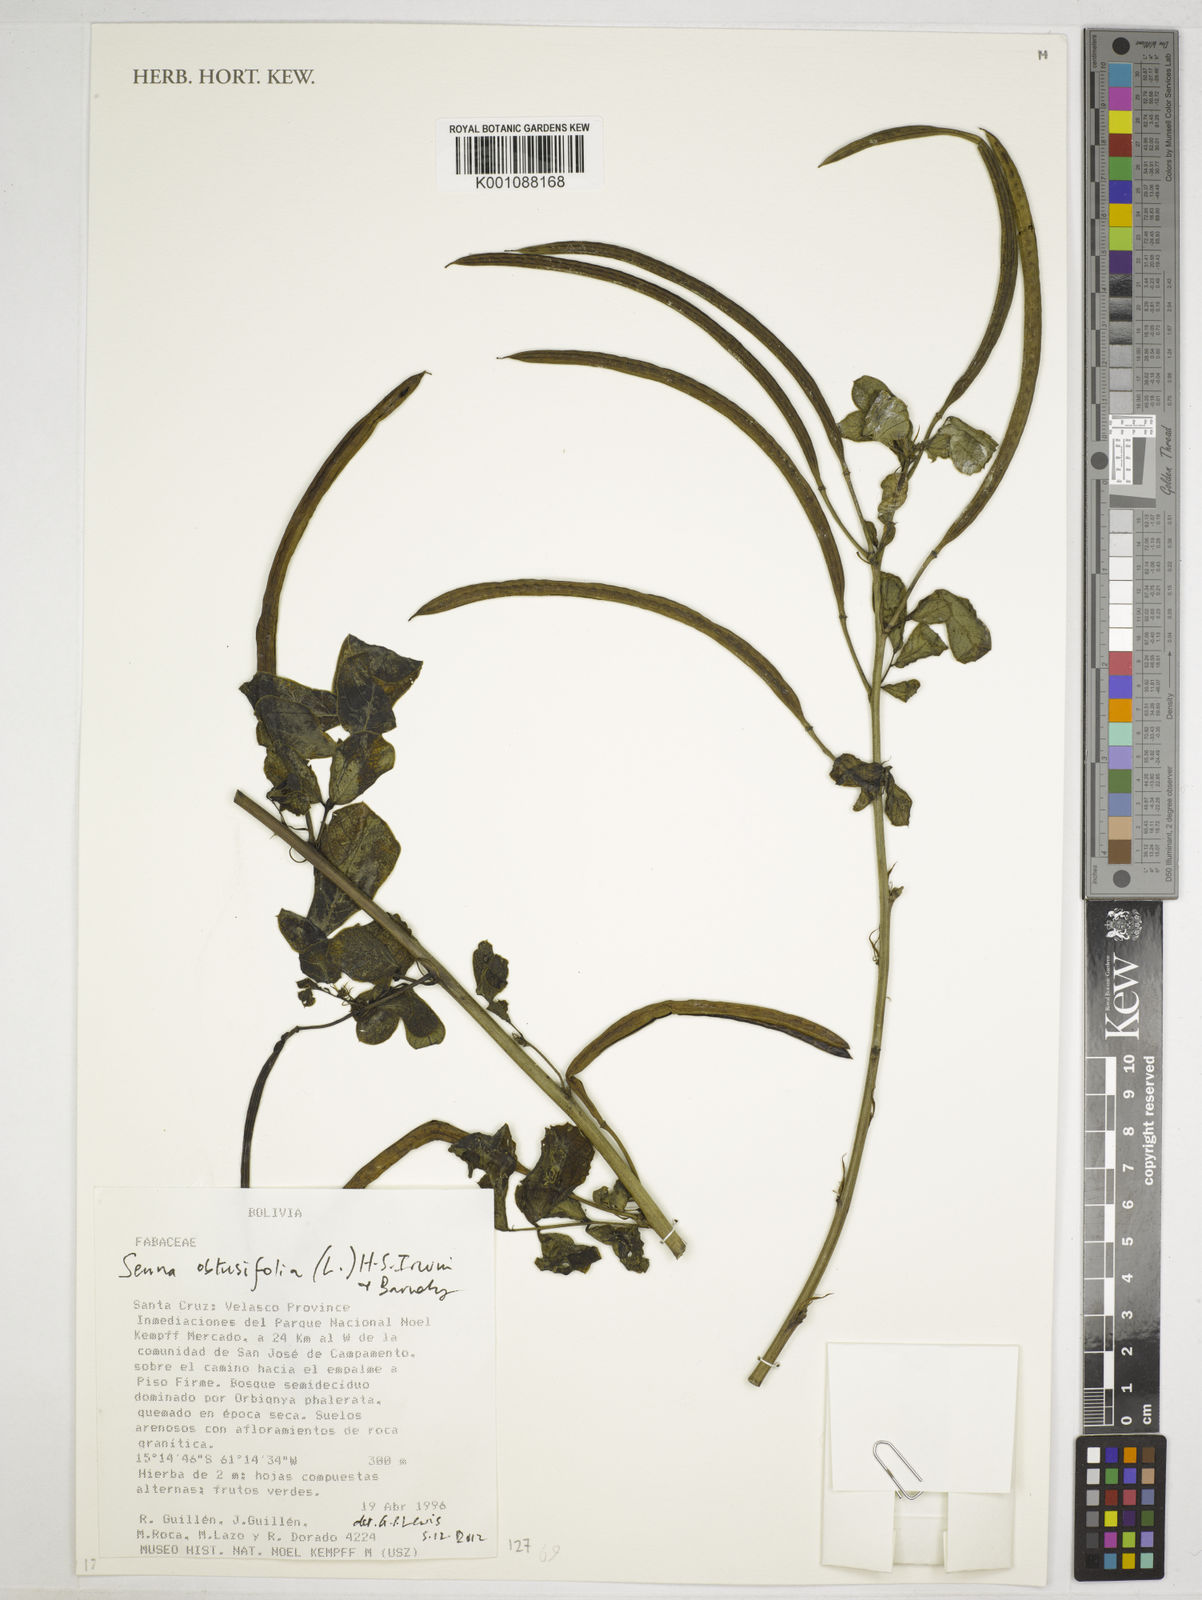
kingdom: Plantae
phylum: Tracheophyta
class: Magnoliopsida
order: Fabales
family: Fabaceae
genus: Senna
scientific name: Senna obtusifolia
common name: Java-bean
